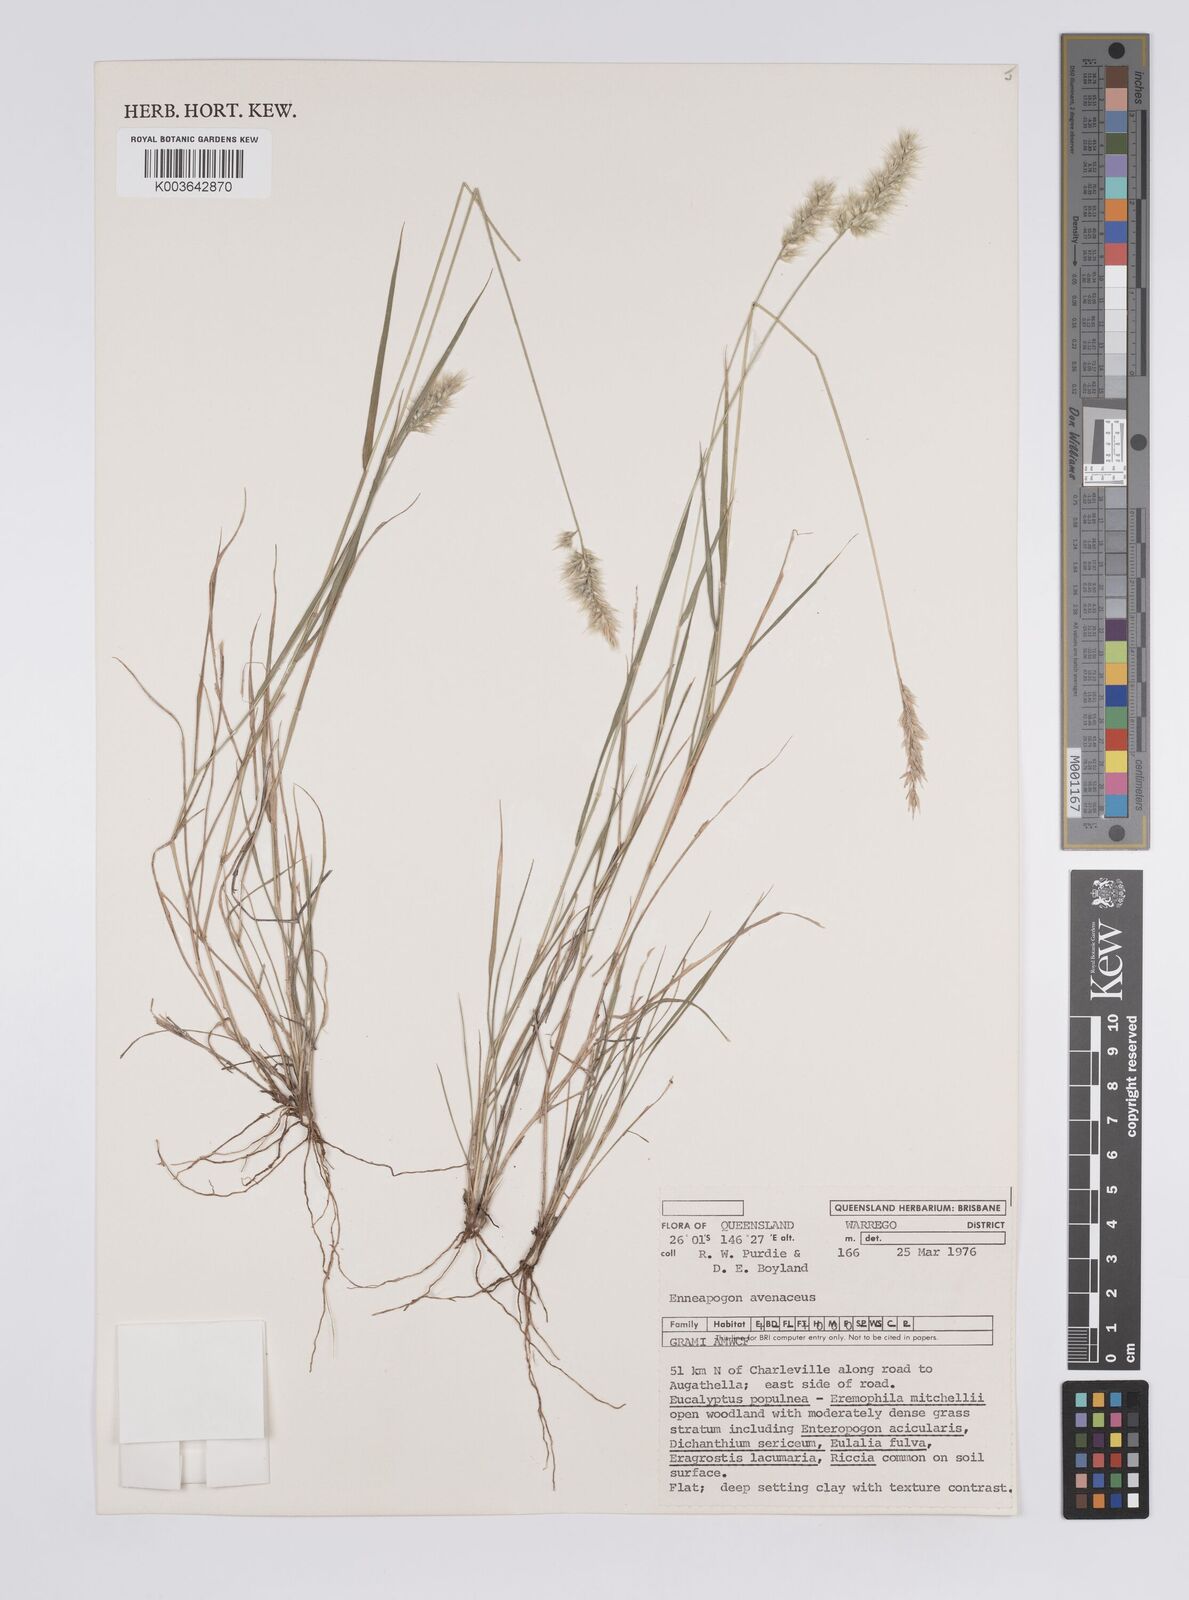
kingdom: Plantae
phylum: Tracheophyta
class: Liliopsida
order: Poales
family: Poaceae
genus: Enneapogon
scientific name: Enneapogon avenaceus
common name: Hairy oat grass
